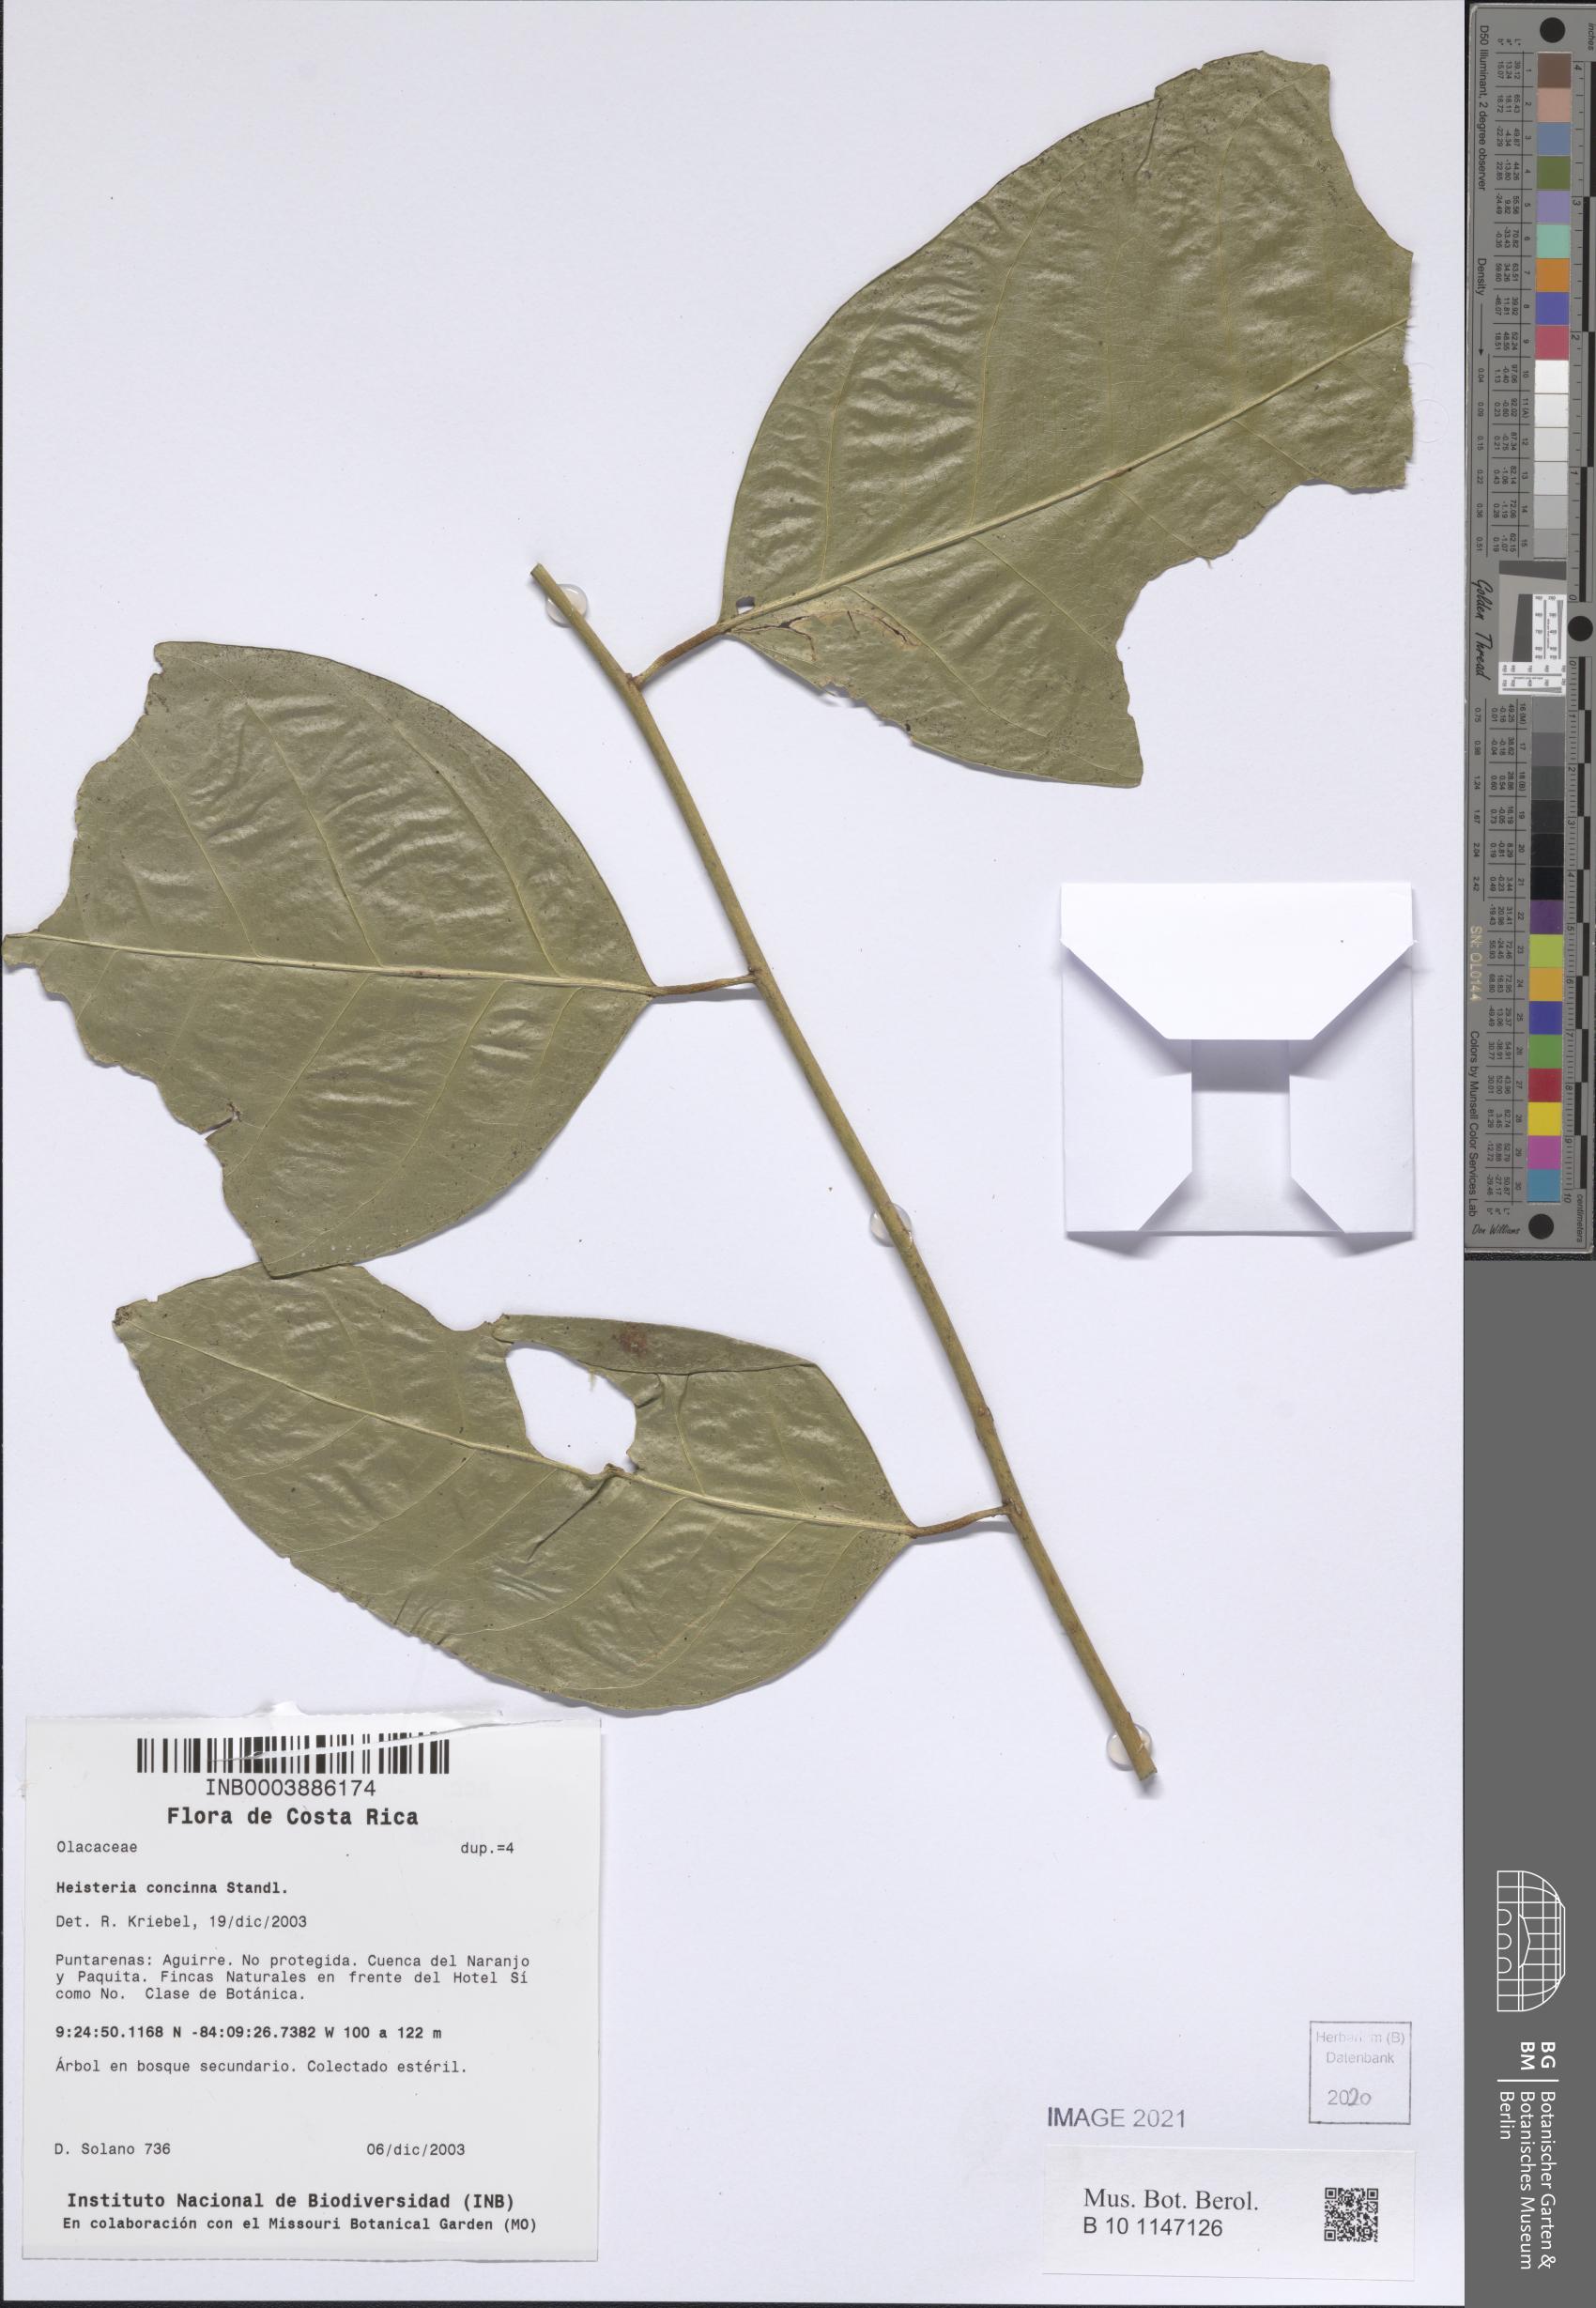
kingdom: Plantae
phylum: Tracheophyta
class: Magnoliopsida
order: Santalales
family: Erythropalaceae
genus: Heisteria
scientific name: Heisteria concinna
